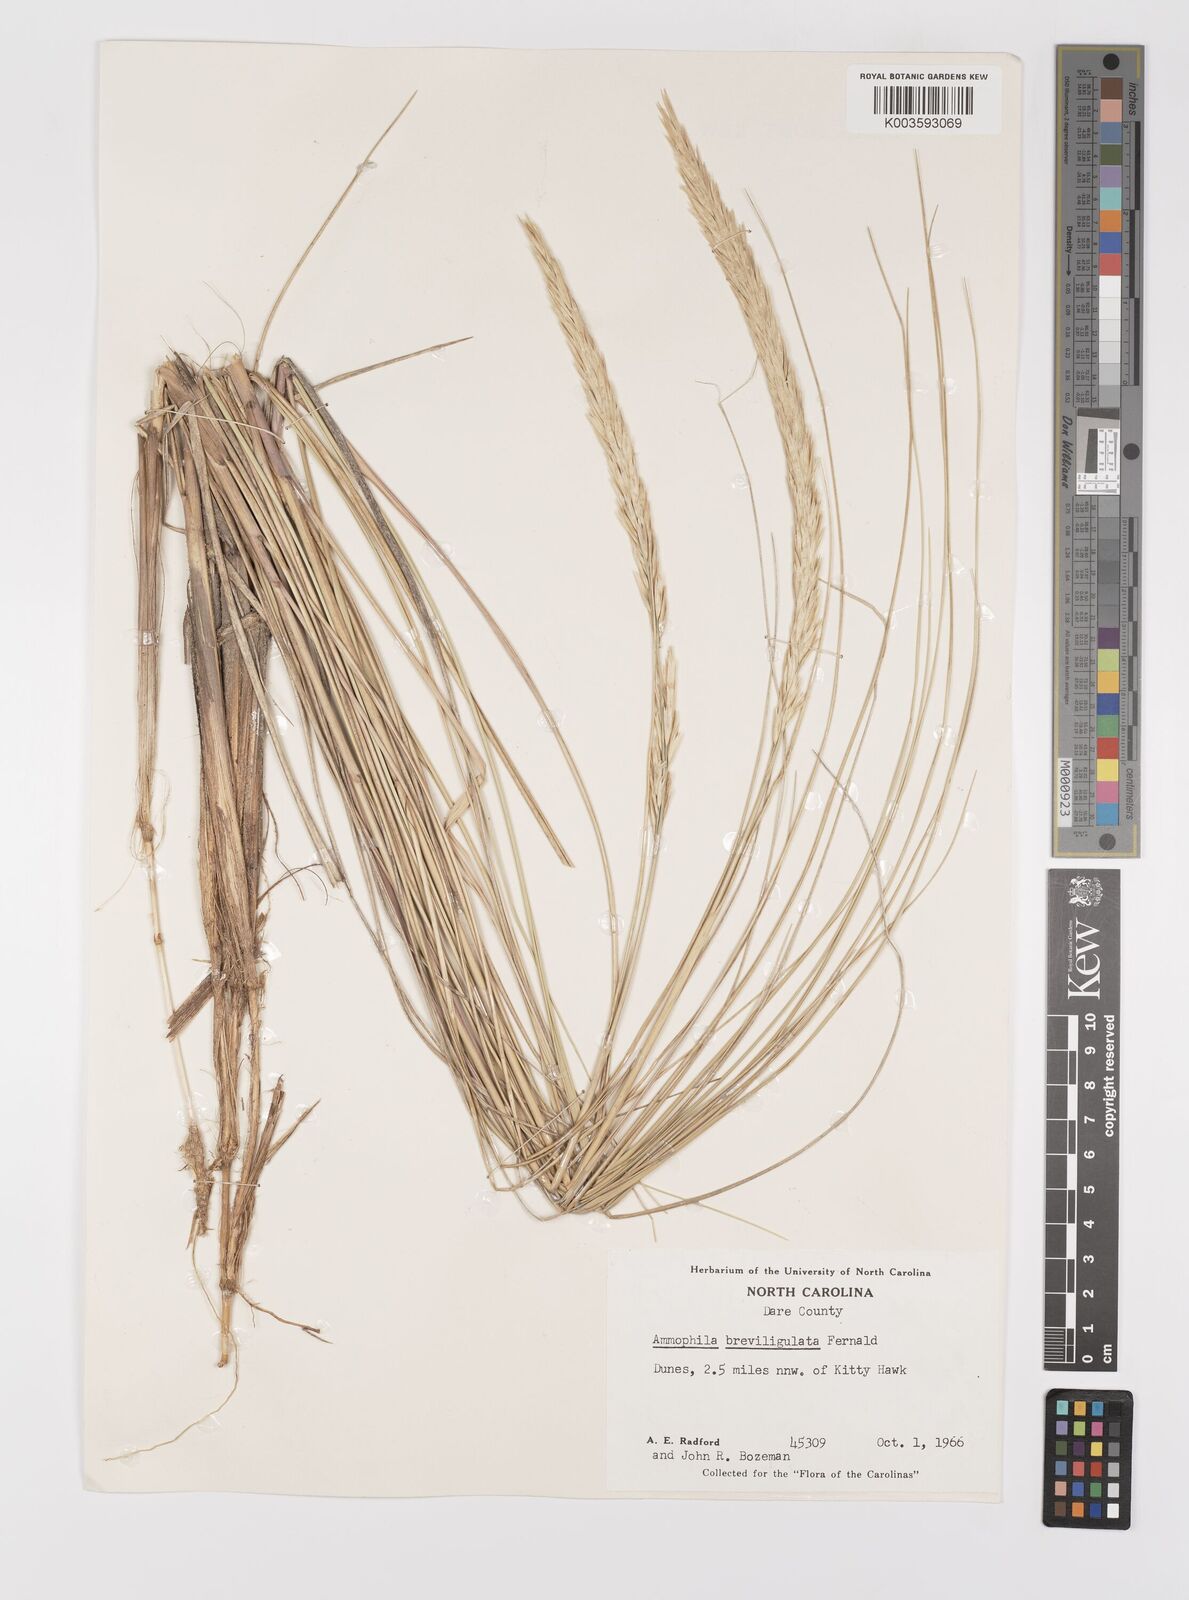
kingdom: Plantae
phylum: Tracheophyta
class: Liliopsida
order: Poales
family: Poaceae
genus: Calamagrostis
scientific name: Calamagrostis breviligulata
